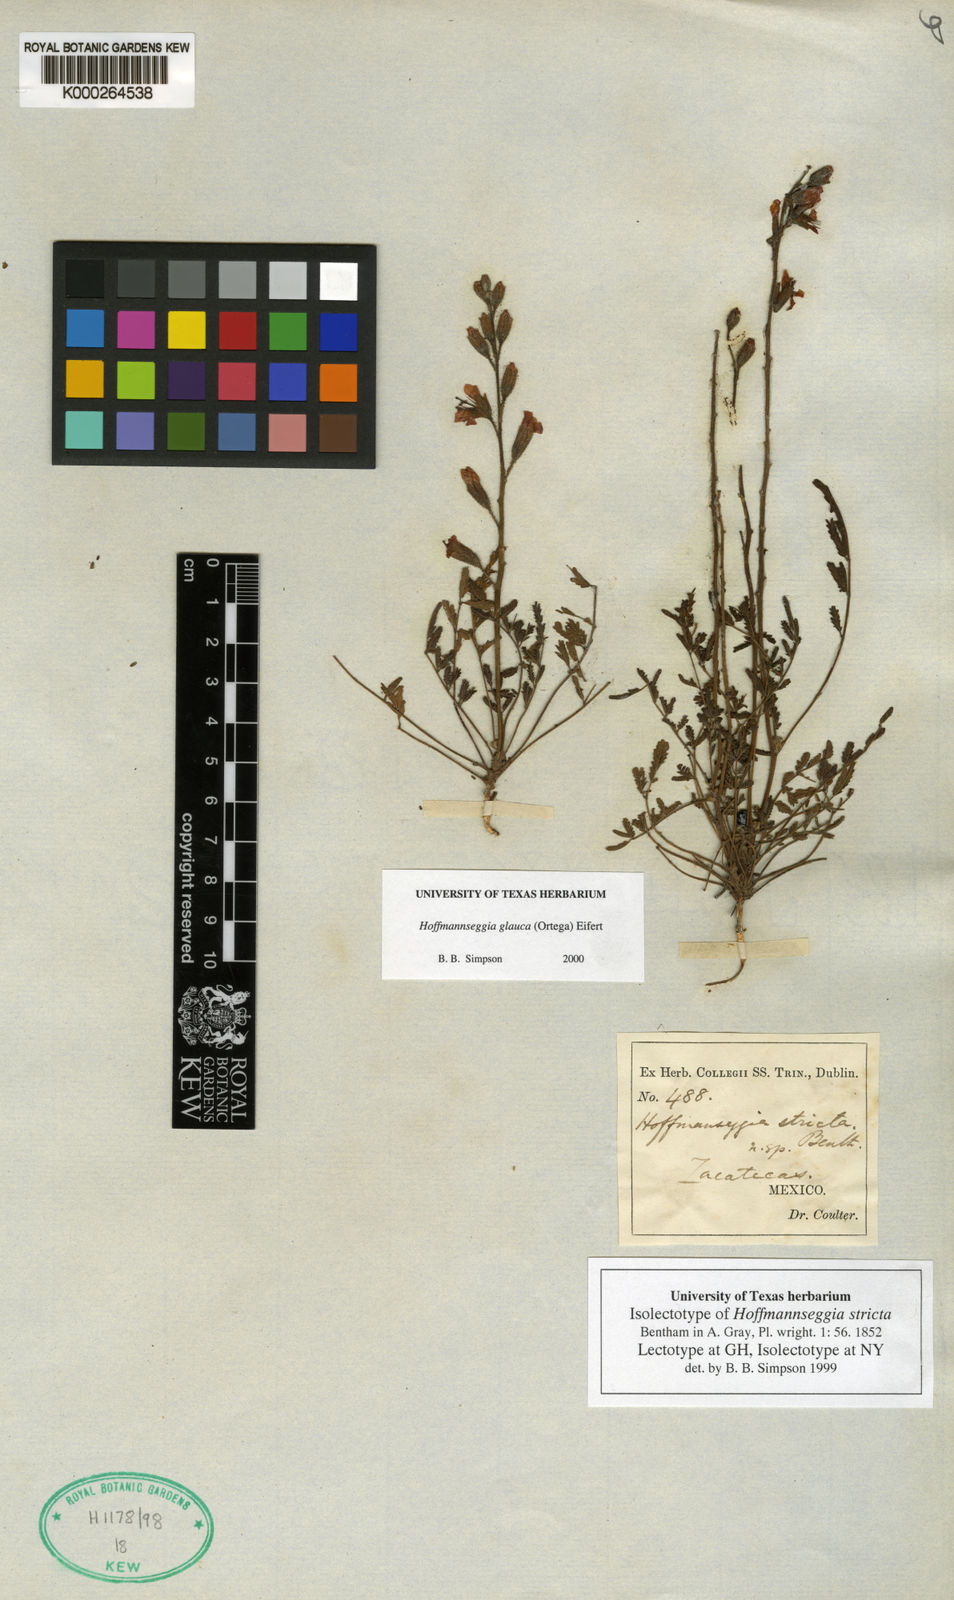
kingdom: Plantae
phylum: Tracheophyta
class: Magnoliopsida
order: Fabales
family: Fabaceae
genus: Hoffmannseggia
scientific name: Hoffmannseggia glauca
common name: Pignut
